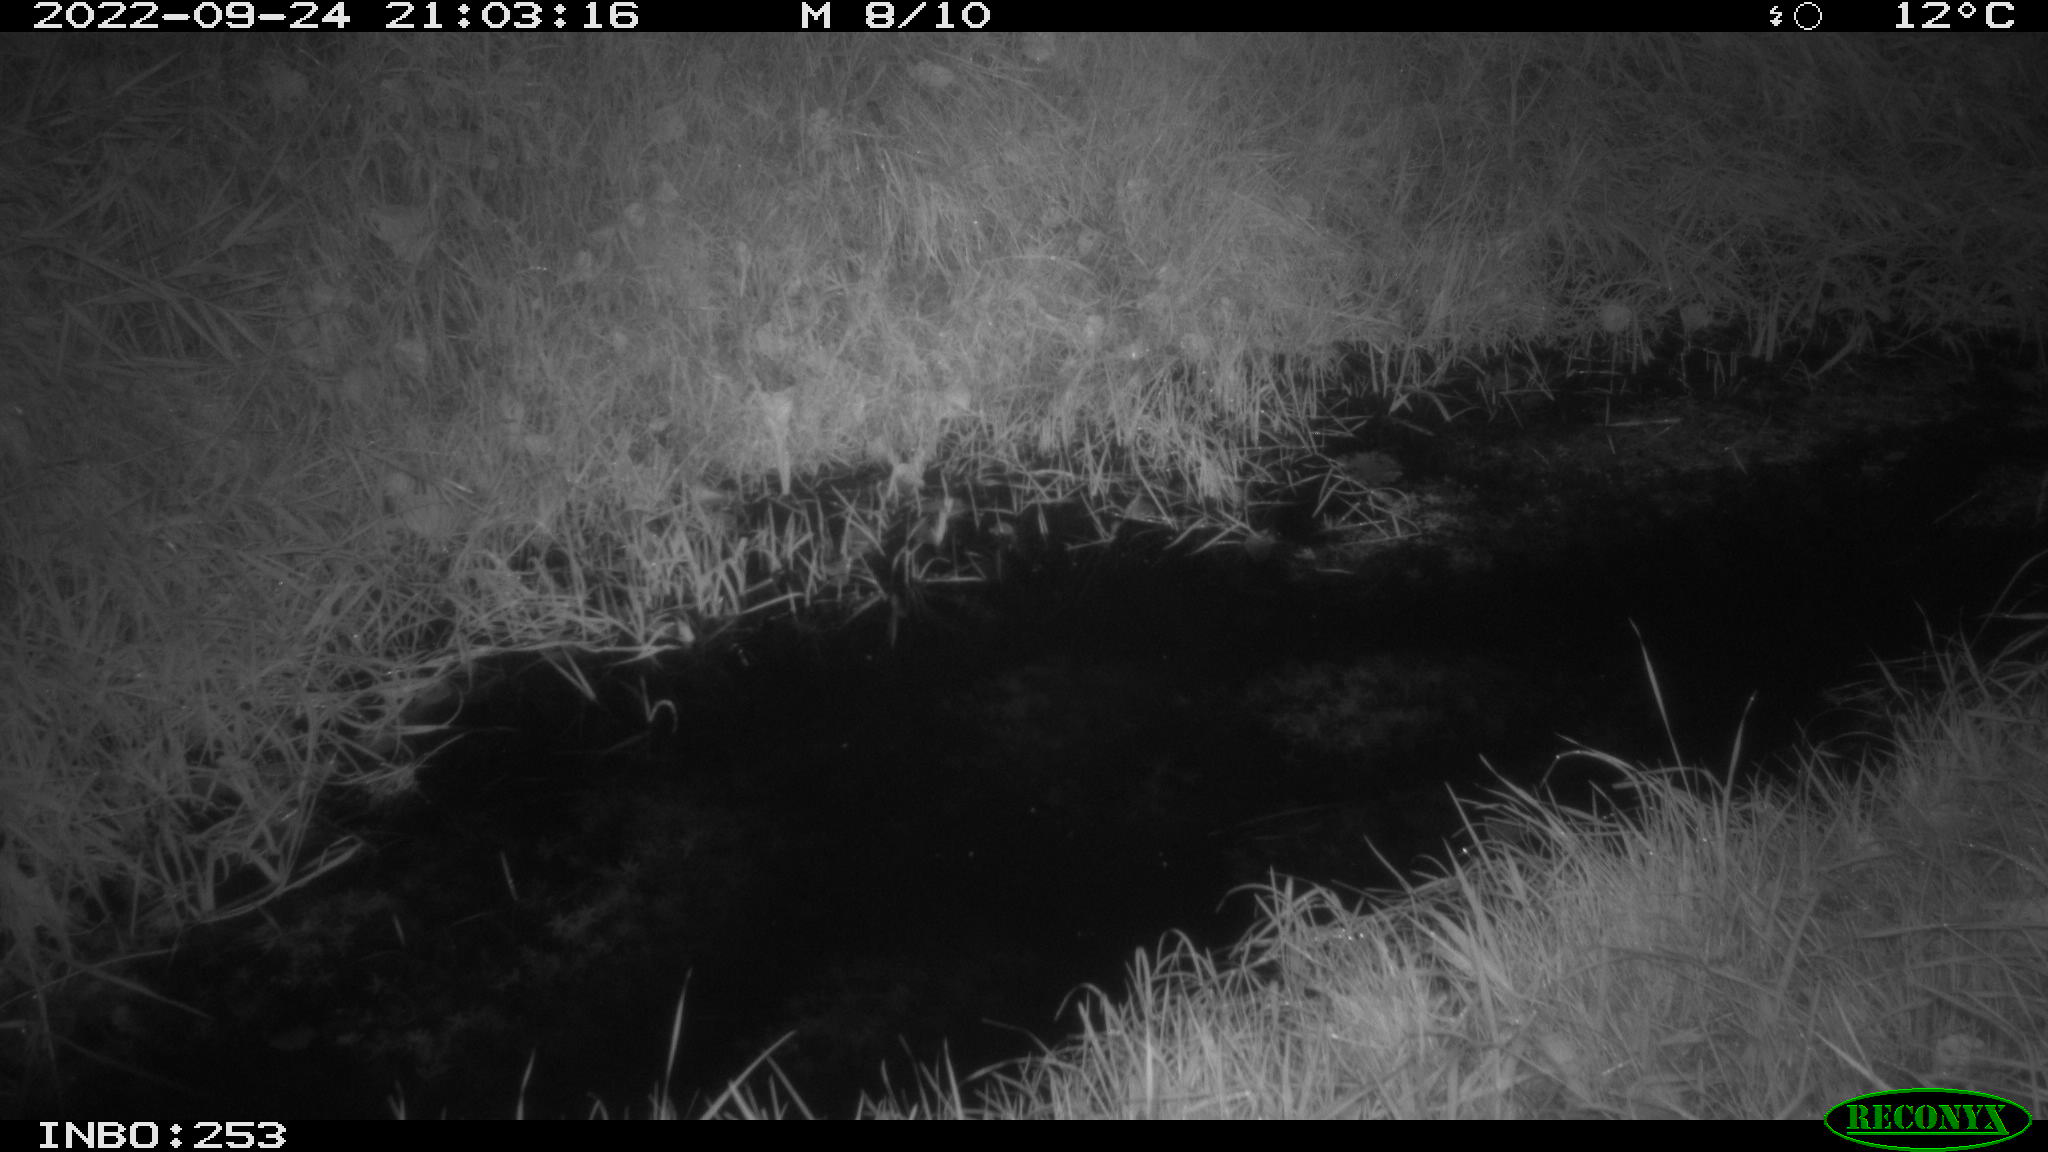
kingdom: Animalia
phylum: Chordata
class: Mammalia
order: Rodentia
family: Muridae
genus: Rattus
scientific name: Rattus norvegicus
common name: Brown rat
